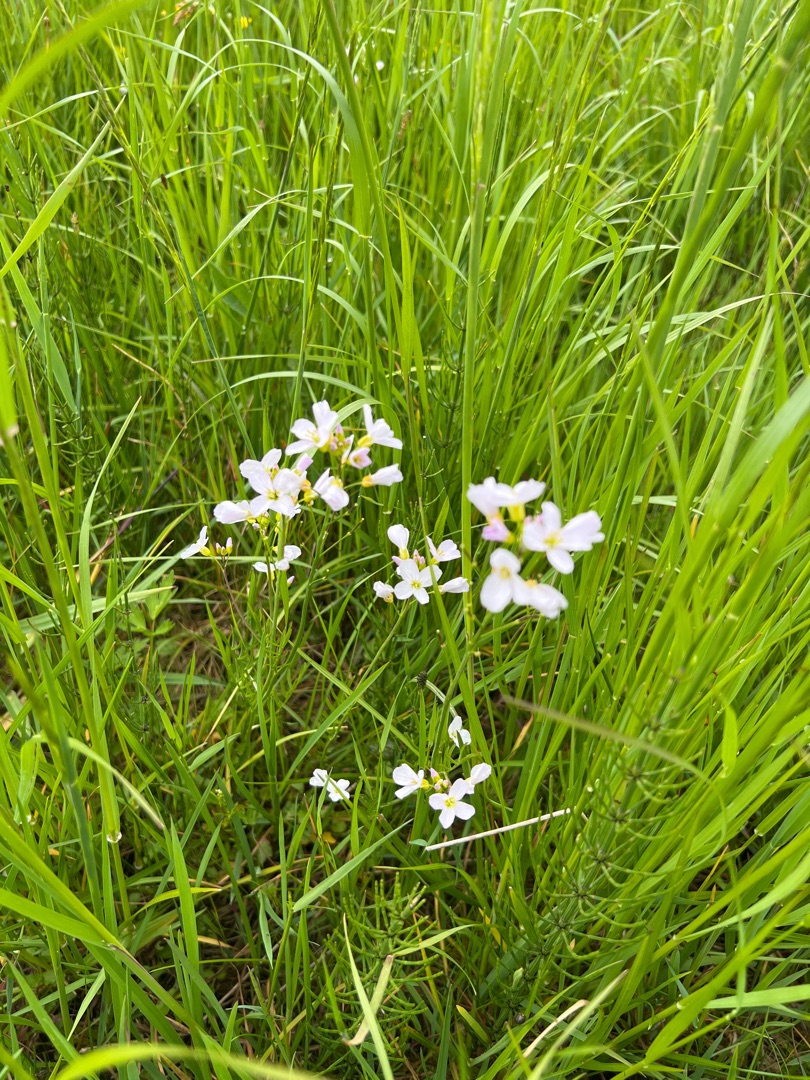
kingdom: Plantae
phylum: Tracheophyta
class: Magnoliopsida
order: Brassicales
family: Brassicaceae
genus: Cardamine
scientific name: Cardamine pratensis
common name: Almindelig engkarse
